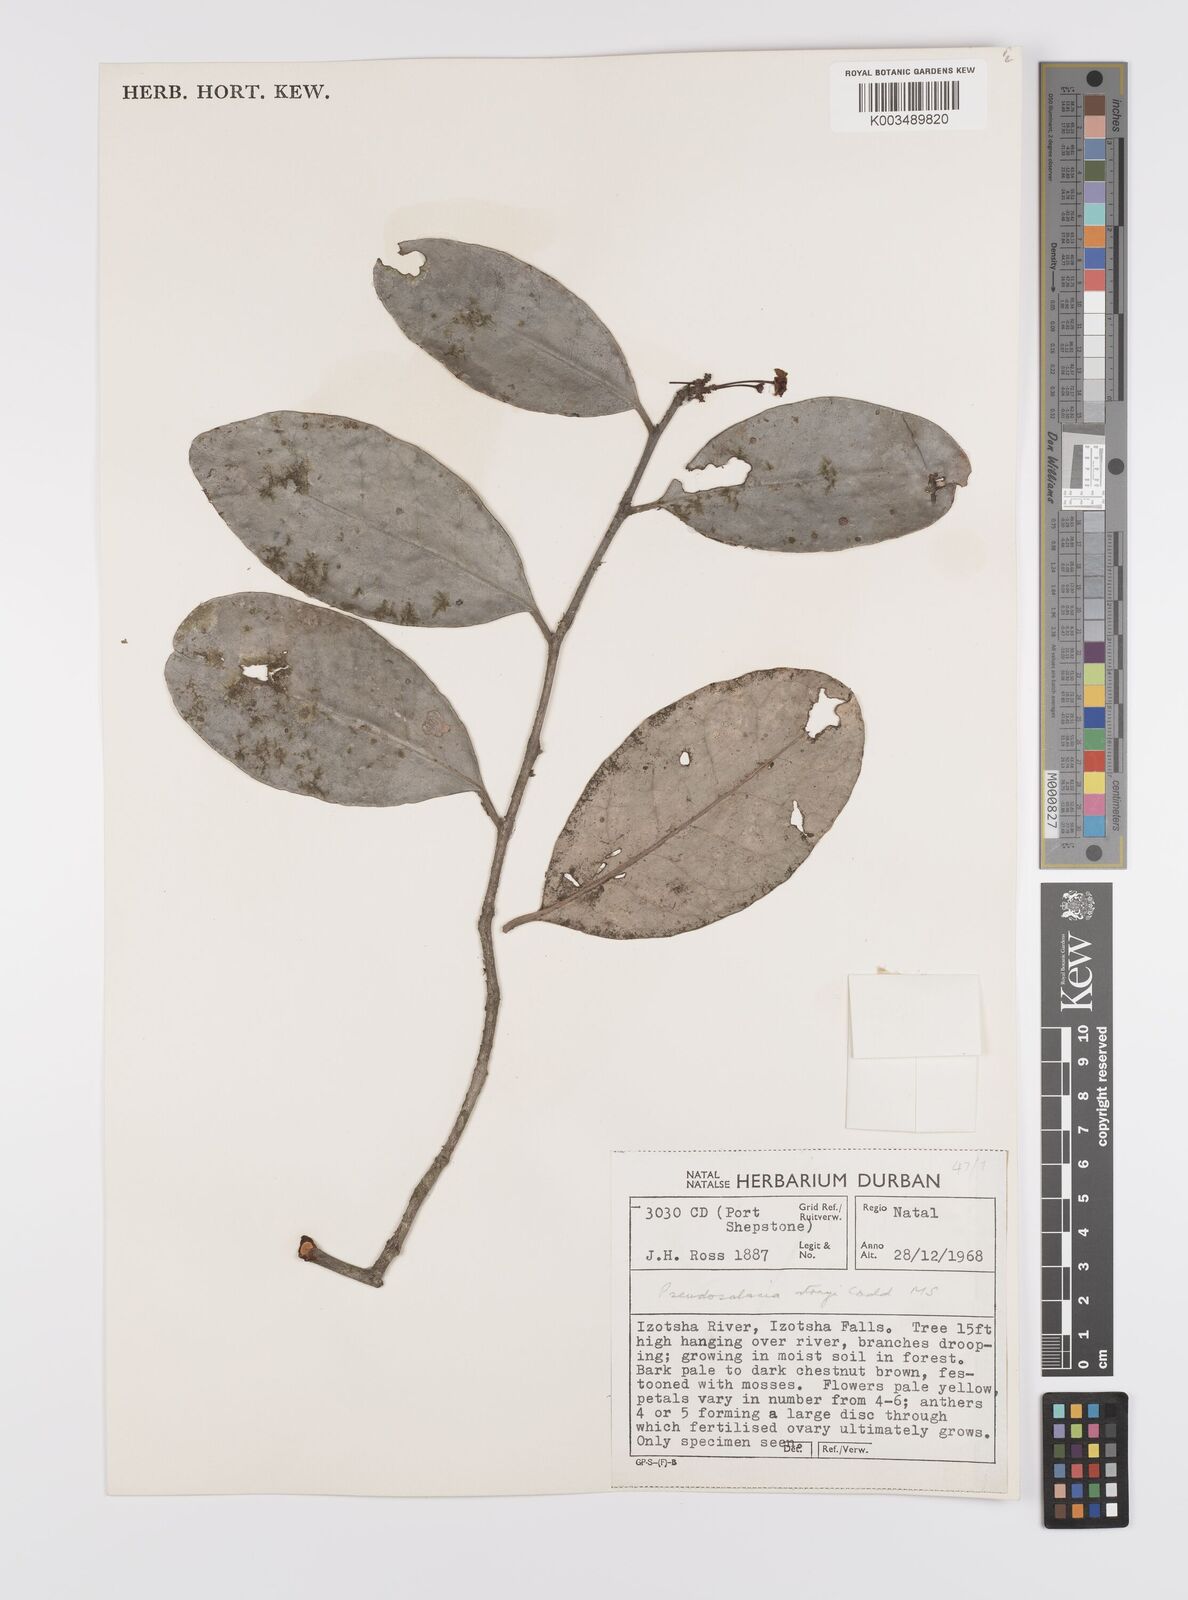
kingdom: Plantae
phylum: Tracheophyta
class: Magnoliopsida
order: Celastrales
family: Celastraceae
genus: Pseudosalacia
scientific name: Pseudosalacia streyi
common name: Bastard lemon
